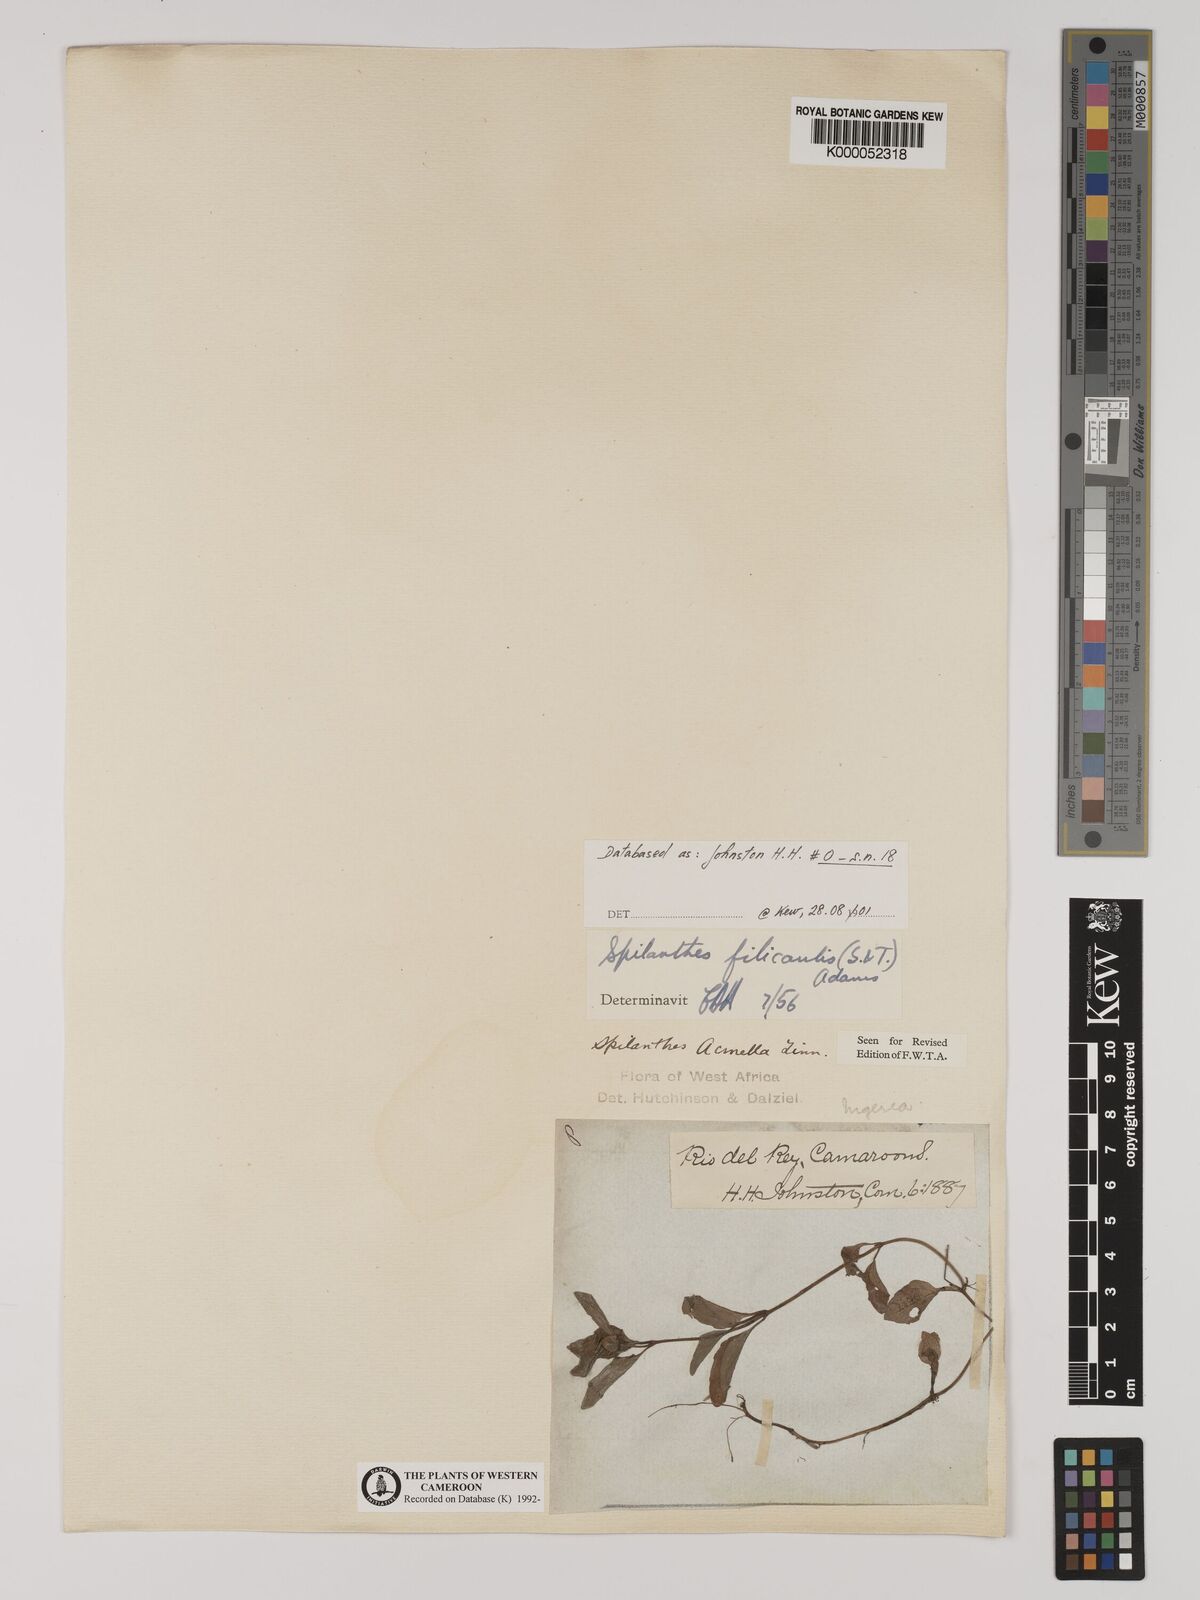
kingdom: Plantae
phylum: Tracheophyta
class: Magnoliopsida
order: Asterales
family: Asteraceae
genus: Acmella
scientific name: Acmella caulirhiza
